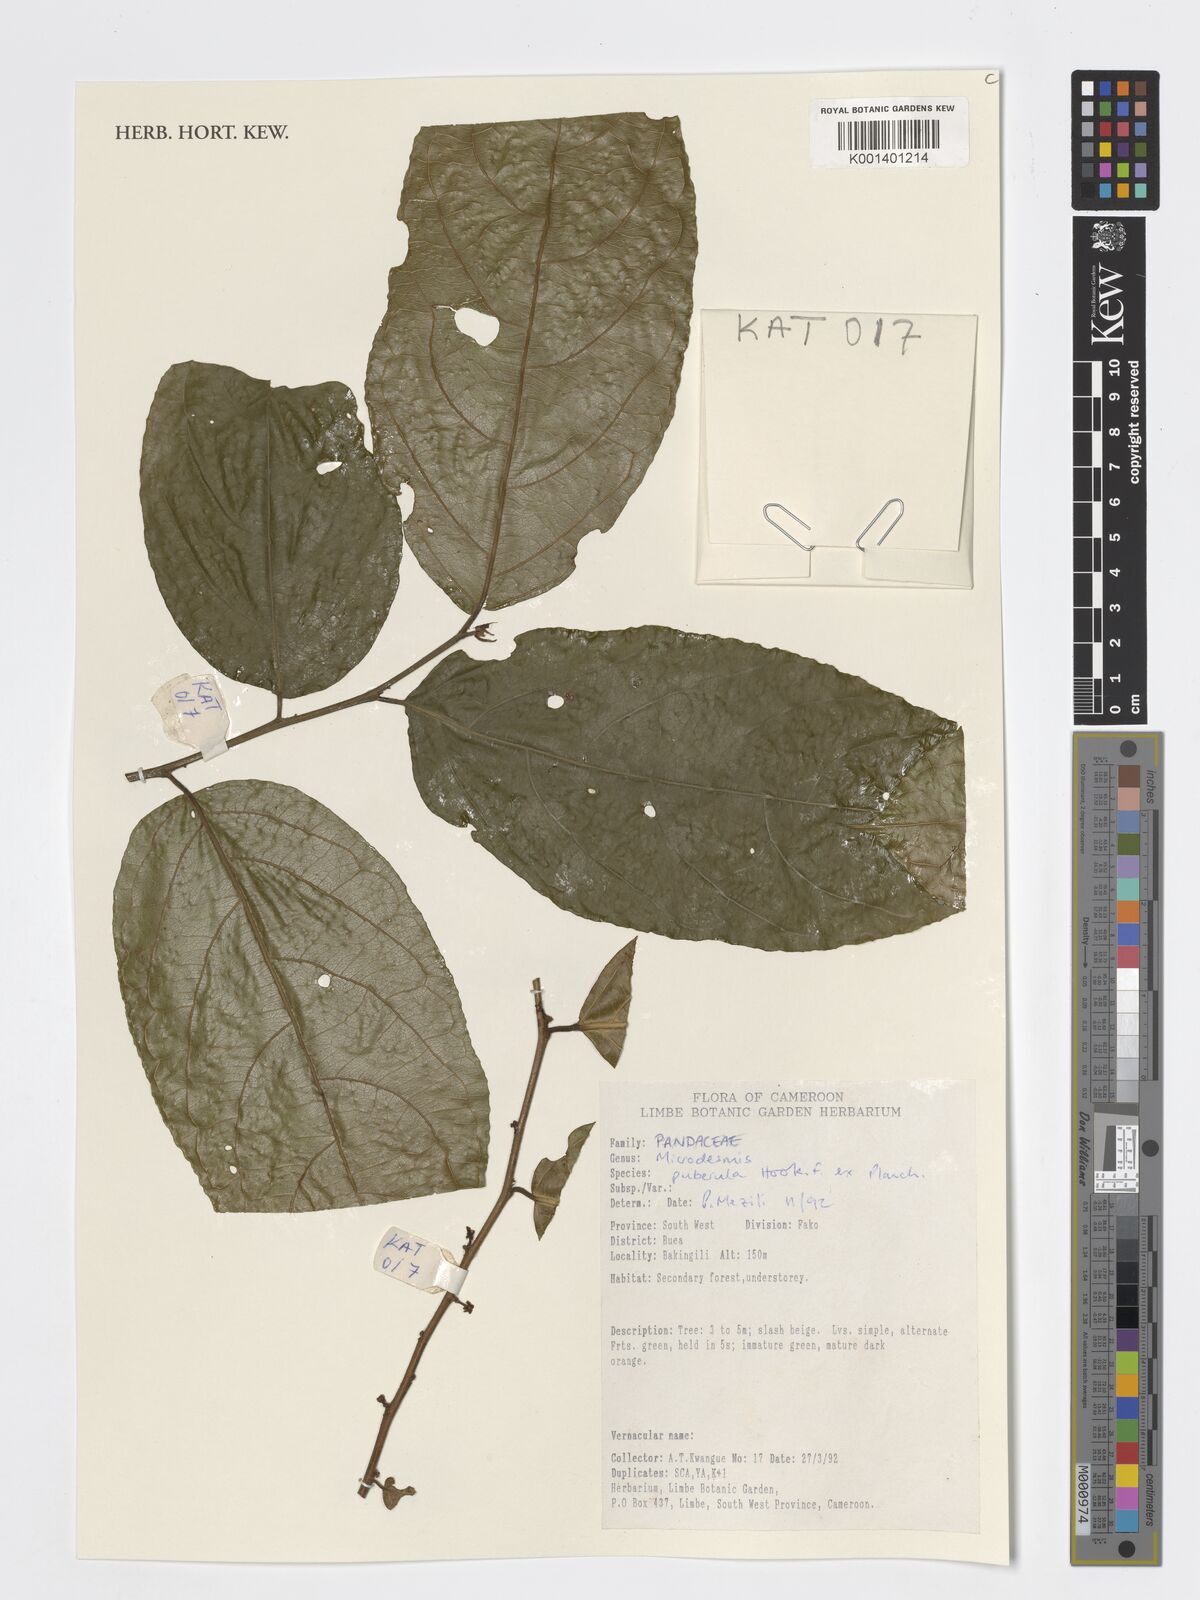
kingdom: Plantae
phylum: Tracheophyta
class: Magnoliopsida
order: Malpighiales
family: Pandaceae
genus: Microdesmis
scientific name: Microdesmis puberula
